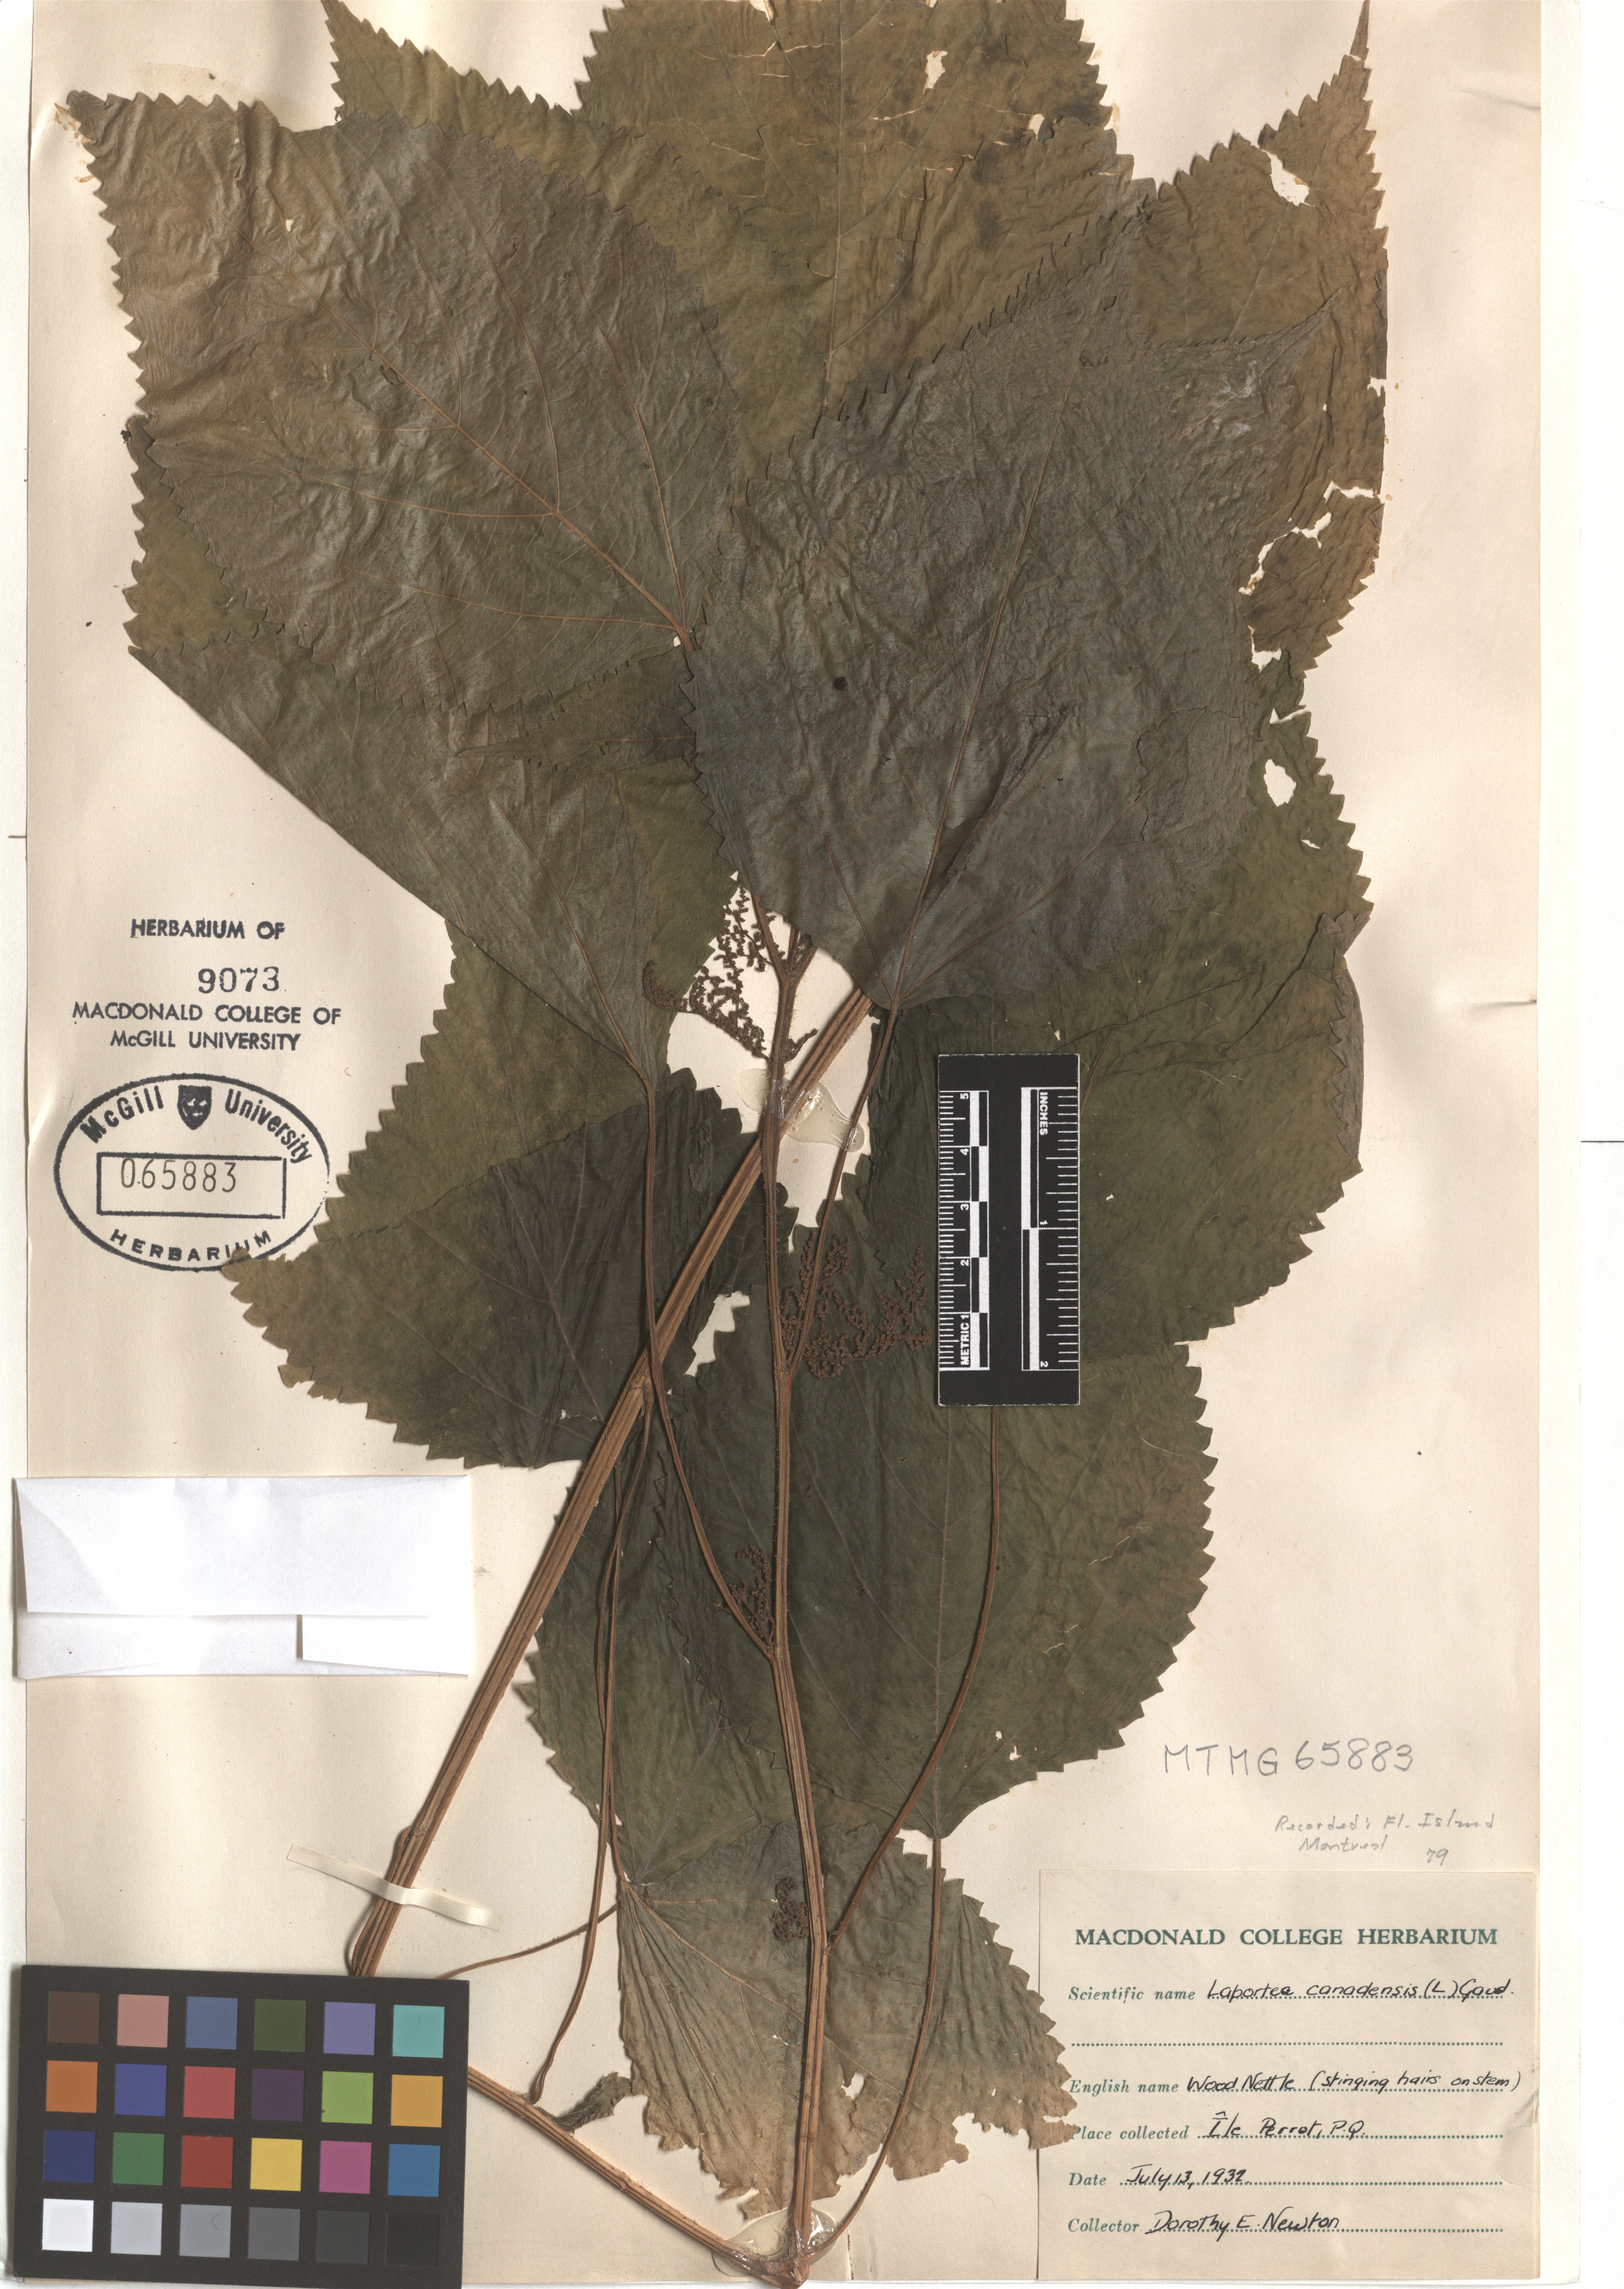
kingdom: Plantae
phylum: Tracheophyta
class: Magnoliopsida
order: Rosales
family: Urticaceae
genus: Laportea
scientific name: Laportea canadensis
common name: Canada nettle
